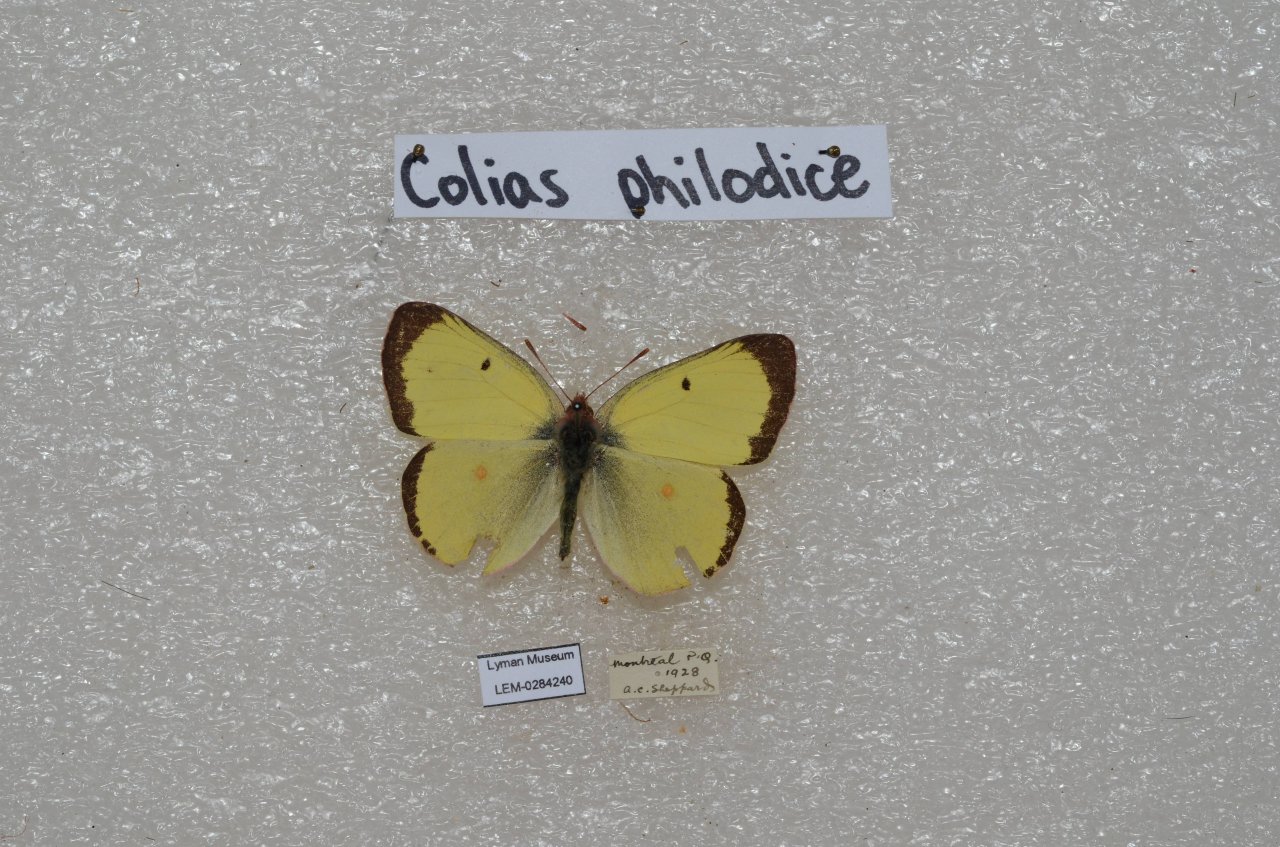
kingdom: Animalia
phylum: Arthropoda
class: Insecta
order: Lepidoptera
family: Pieridae
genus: Colias
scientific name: Colias philodice
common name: Clouded Sulphur
